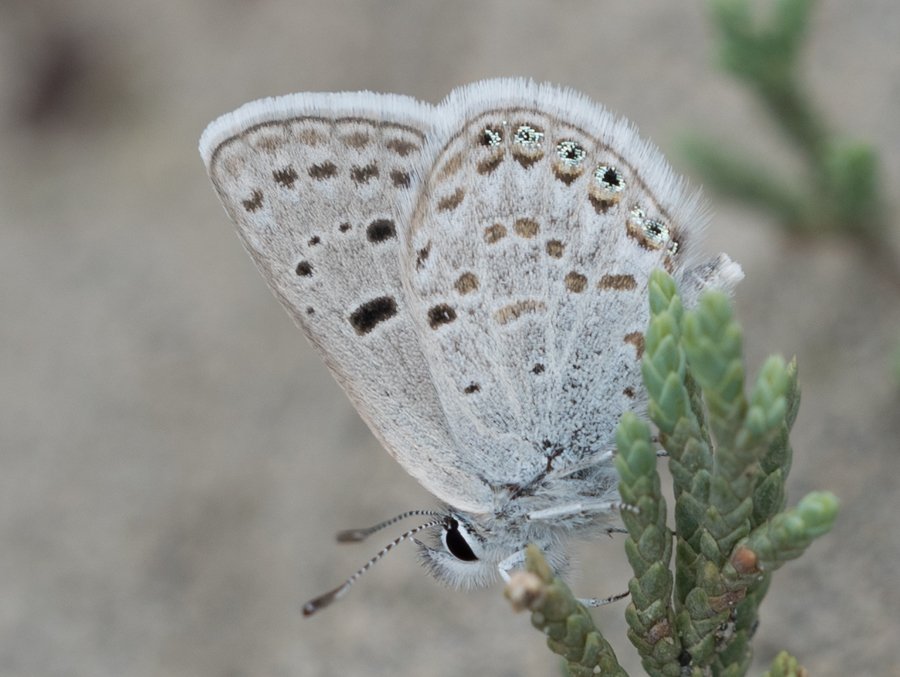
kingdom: Animalia
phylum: Arthropoda
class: Insecta
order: Lepidoptera
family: Lycaenidae
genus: Plebejus
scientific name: Plebejus shasta
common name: Shasta Blue
